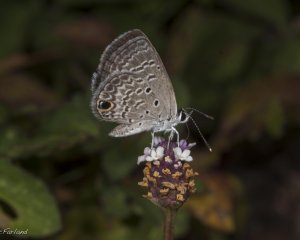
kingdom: Animalia
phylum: Arthropoda
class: Insecta
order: Lepidoptera
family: Lycaenidae
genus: Hemiargus
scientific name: Hemiargus ceraunus
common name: Ceraunus Blue
